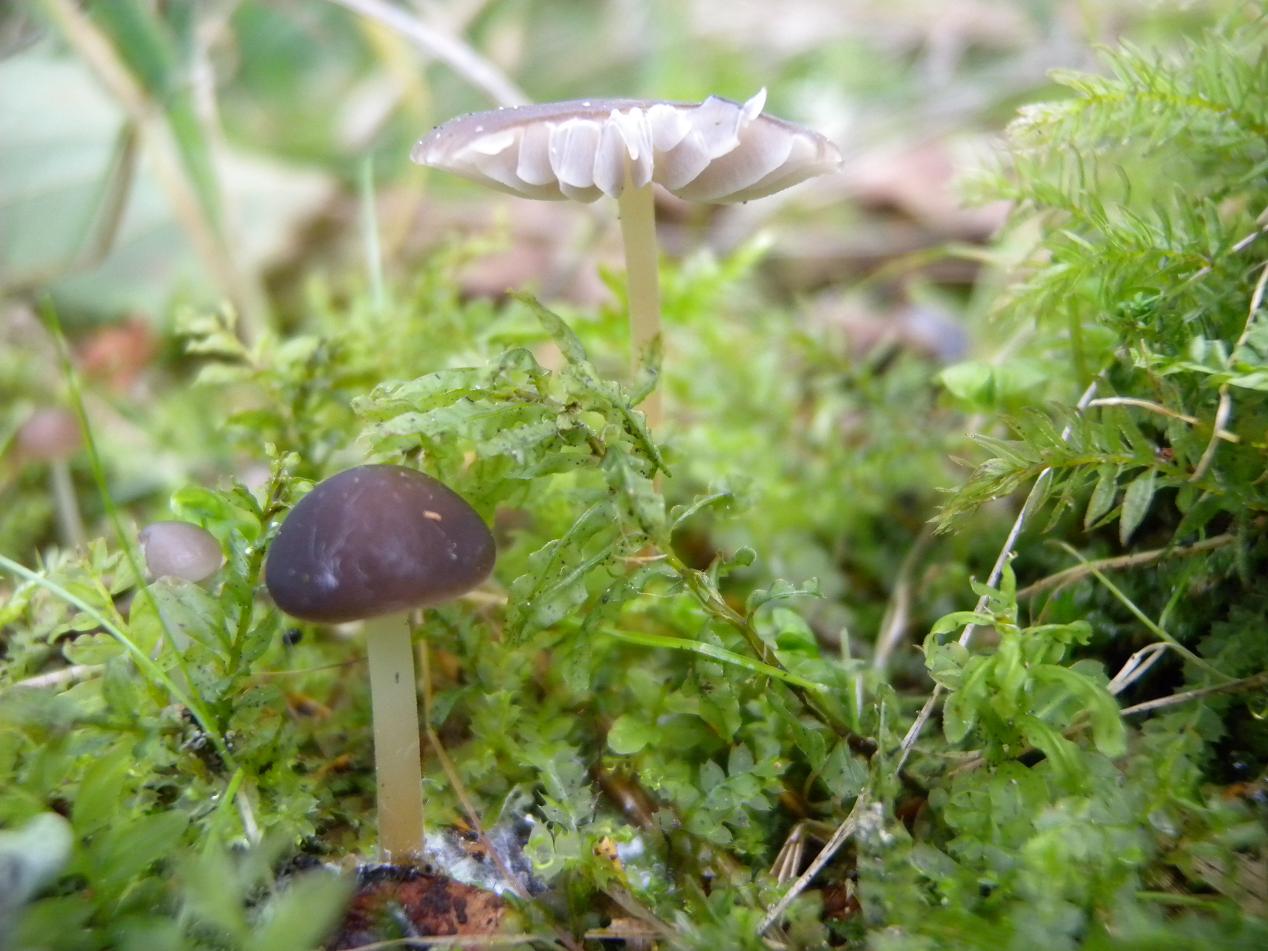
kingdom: Fungi
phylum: Basidiomycota
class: Agaricomycetes
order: Agaricales
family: Physalacriaceae
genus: Strobilurus
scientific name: Strobilurus esculentus
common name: gran-koglehat
